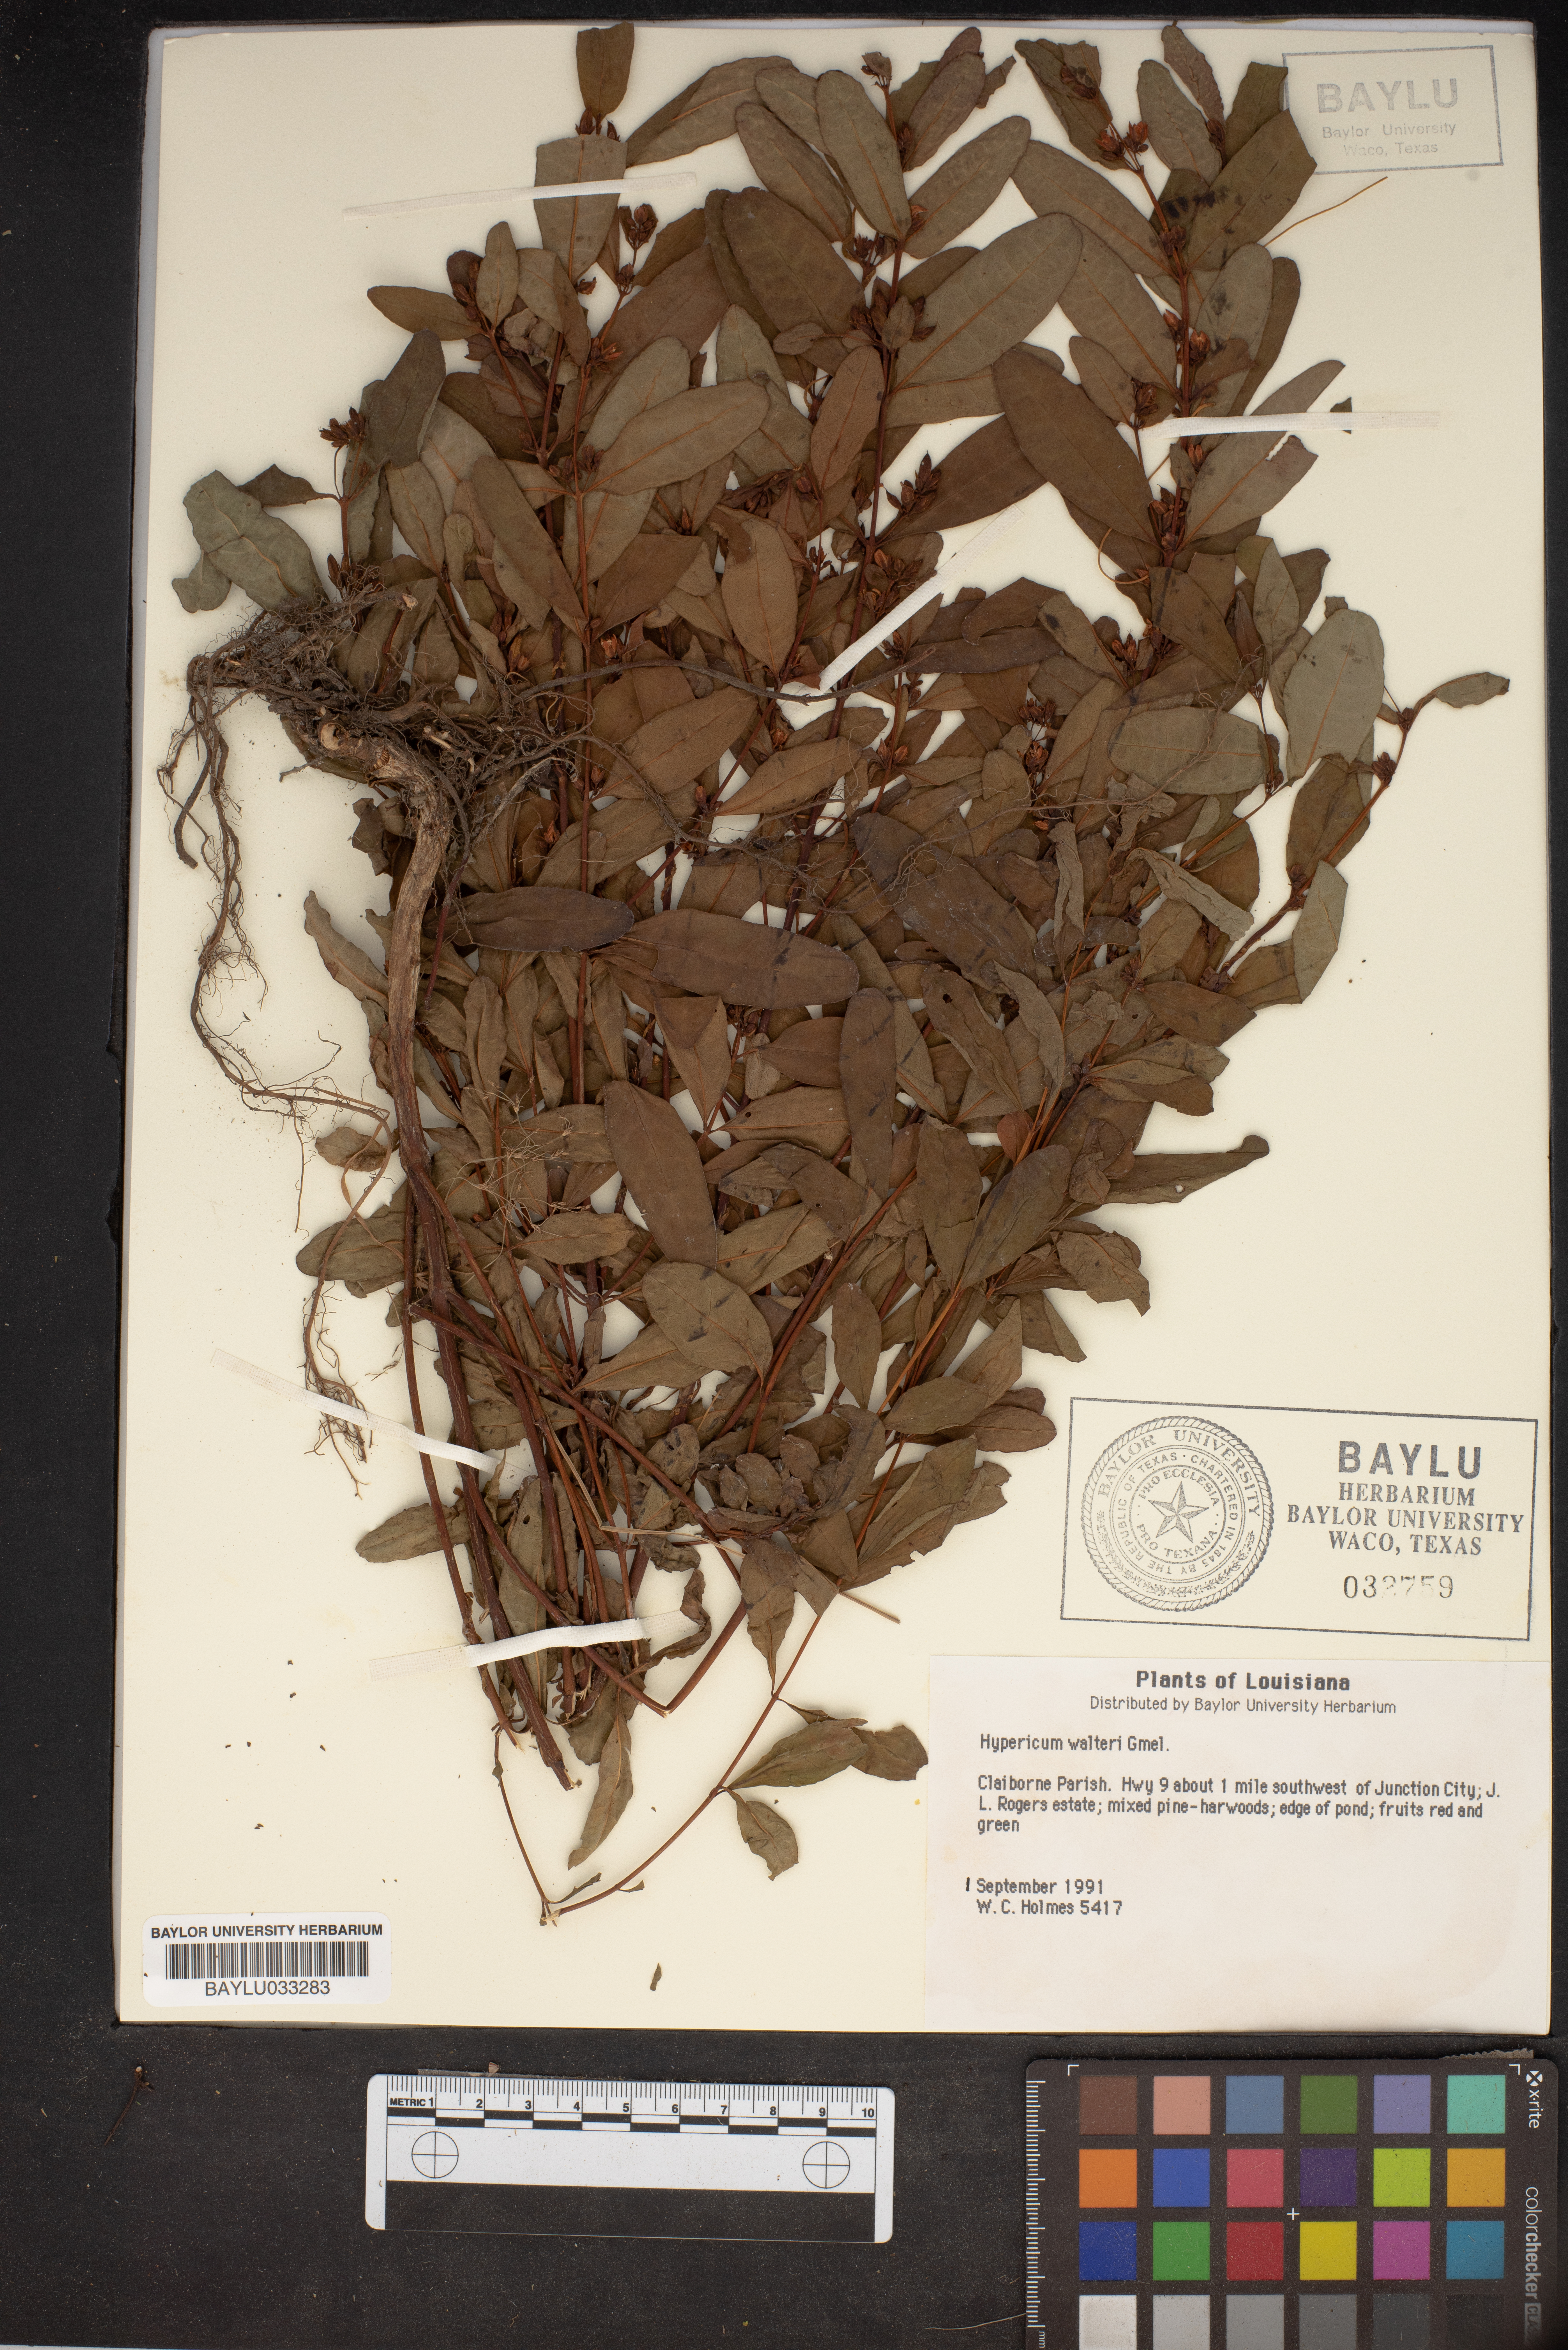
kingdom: Plantae
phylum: Tracheophyta
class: Magnoliopsida
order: Malpighiales
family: Hypericaceae
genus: Triadenum
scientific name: Triadenum walteri
